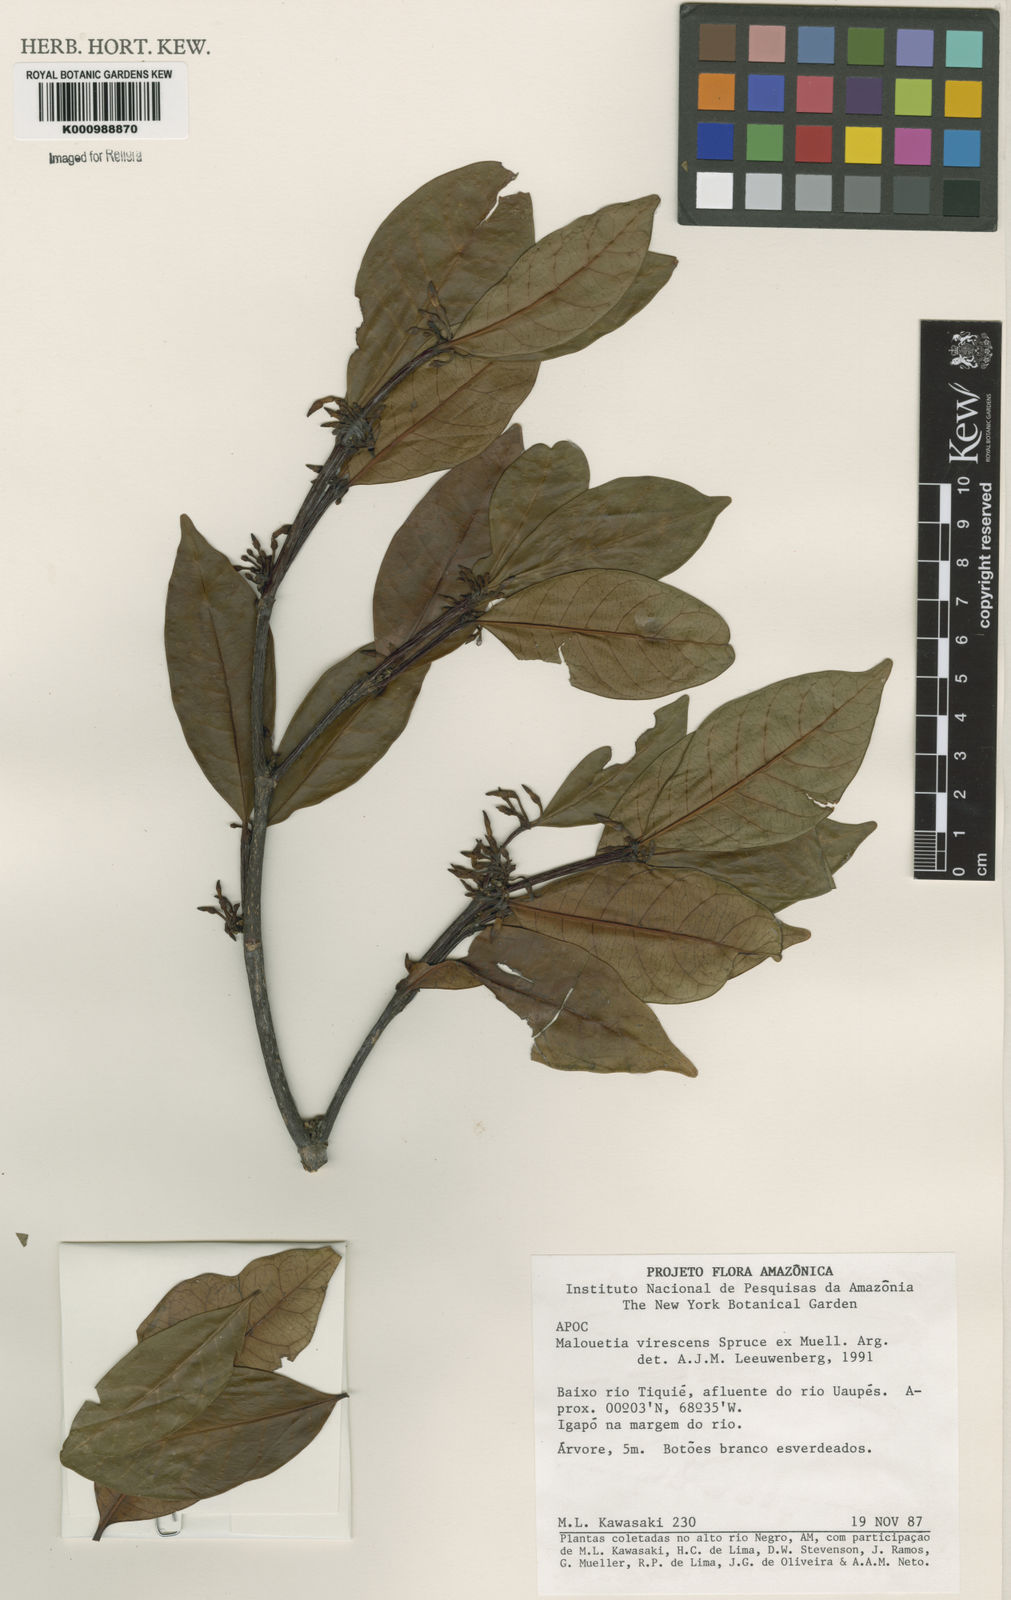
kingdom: Plantae
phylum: Tracheophyta
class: Magnoliopsida
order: Gentianales
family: Apocynaceae
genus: Malouetia
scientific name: Malouetia
